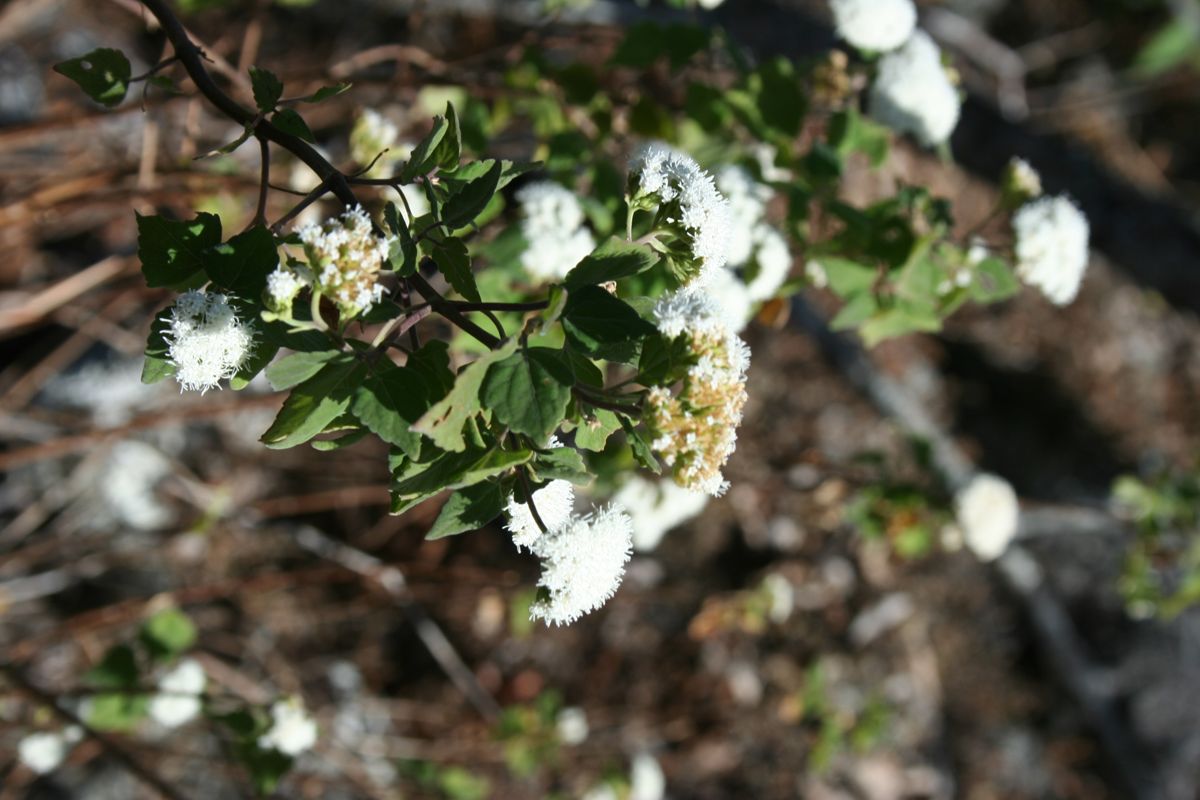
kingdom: Plantae
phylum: Tracheophyta
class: Magnoliopsida
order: Asterales
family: Asteraceae
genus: Macvaughiella
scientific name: Macvaughiella chiapensis
